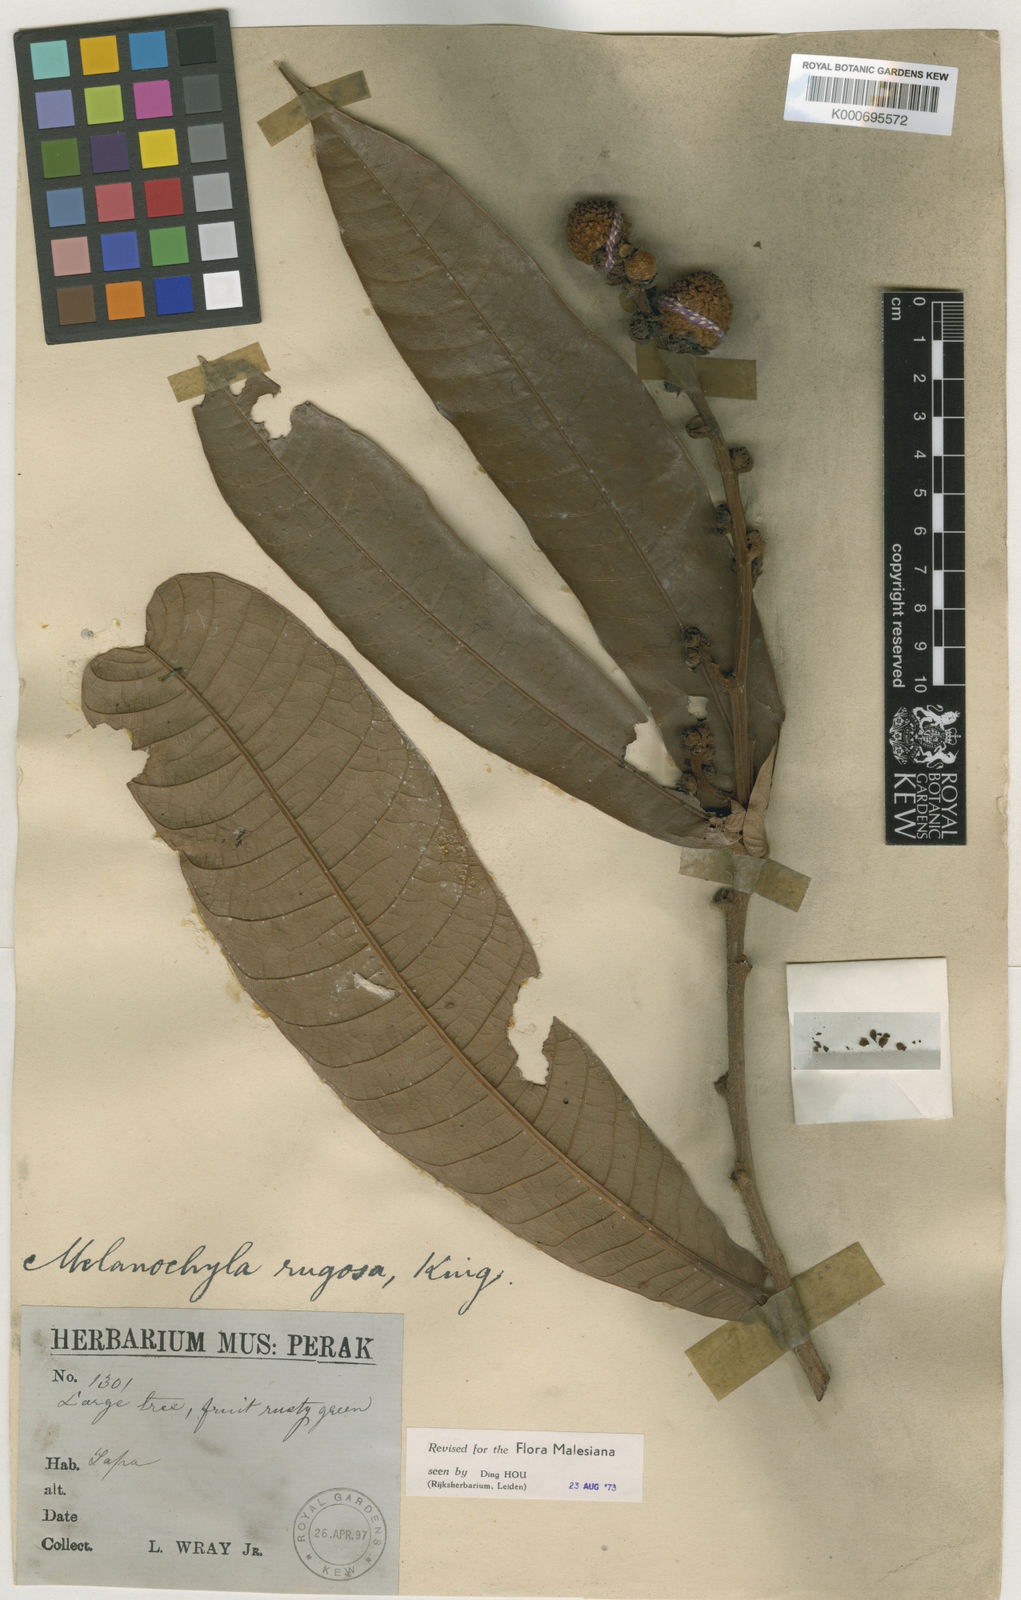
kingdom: Plantae
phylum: Tracheophyta
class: Magnoliopsida
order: Sapindales
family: Anacardiaceae
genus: Melanochyla
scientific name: Melanochyla
